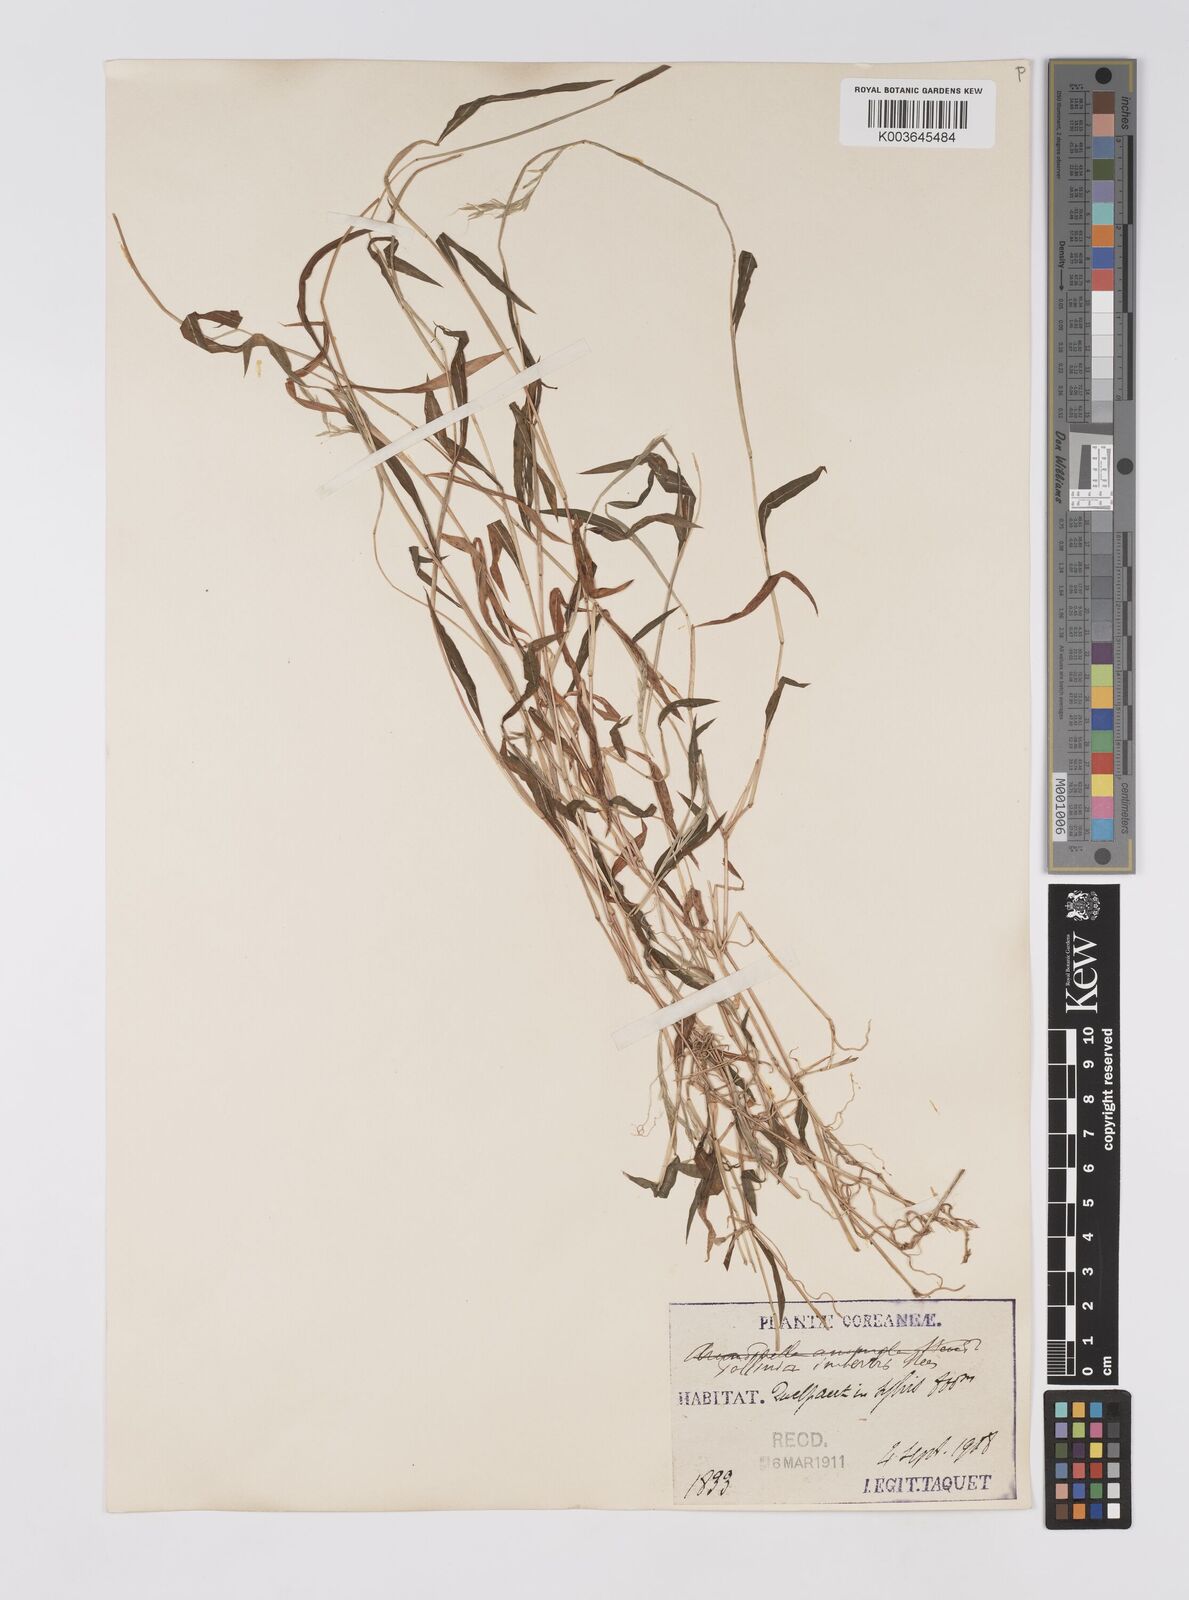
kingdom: Plantae
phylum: Tracheophyta
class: Liliopsida
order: Poales
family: Poaceae
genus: Microstegium
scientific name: Microstegium vimineum
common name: Japanese stiltgrass
